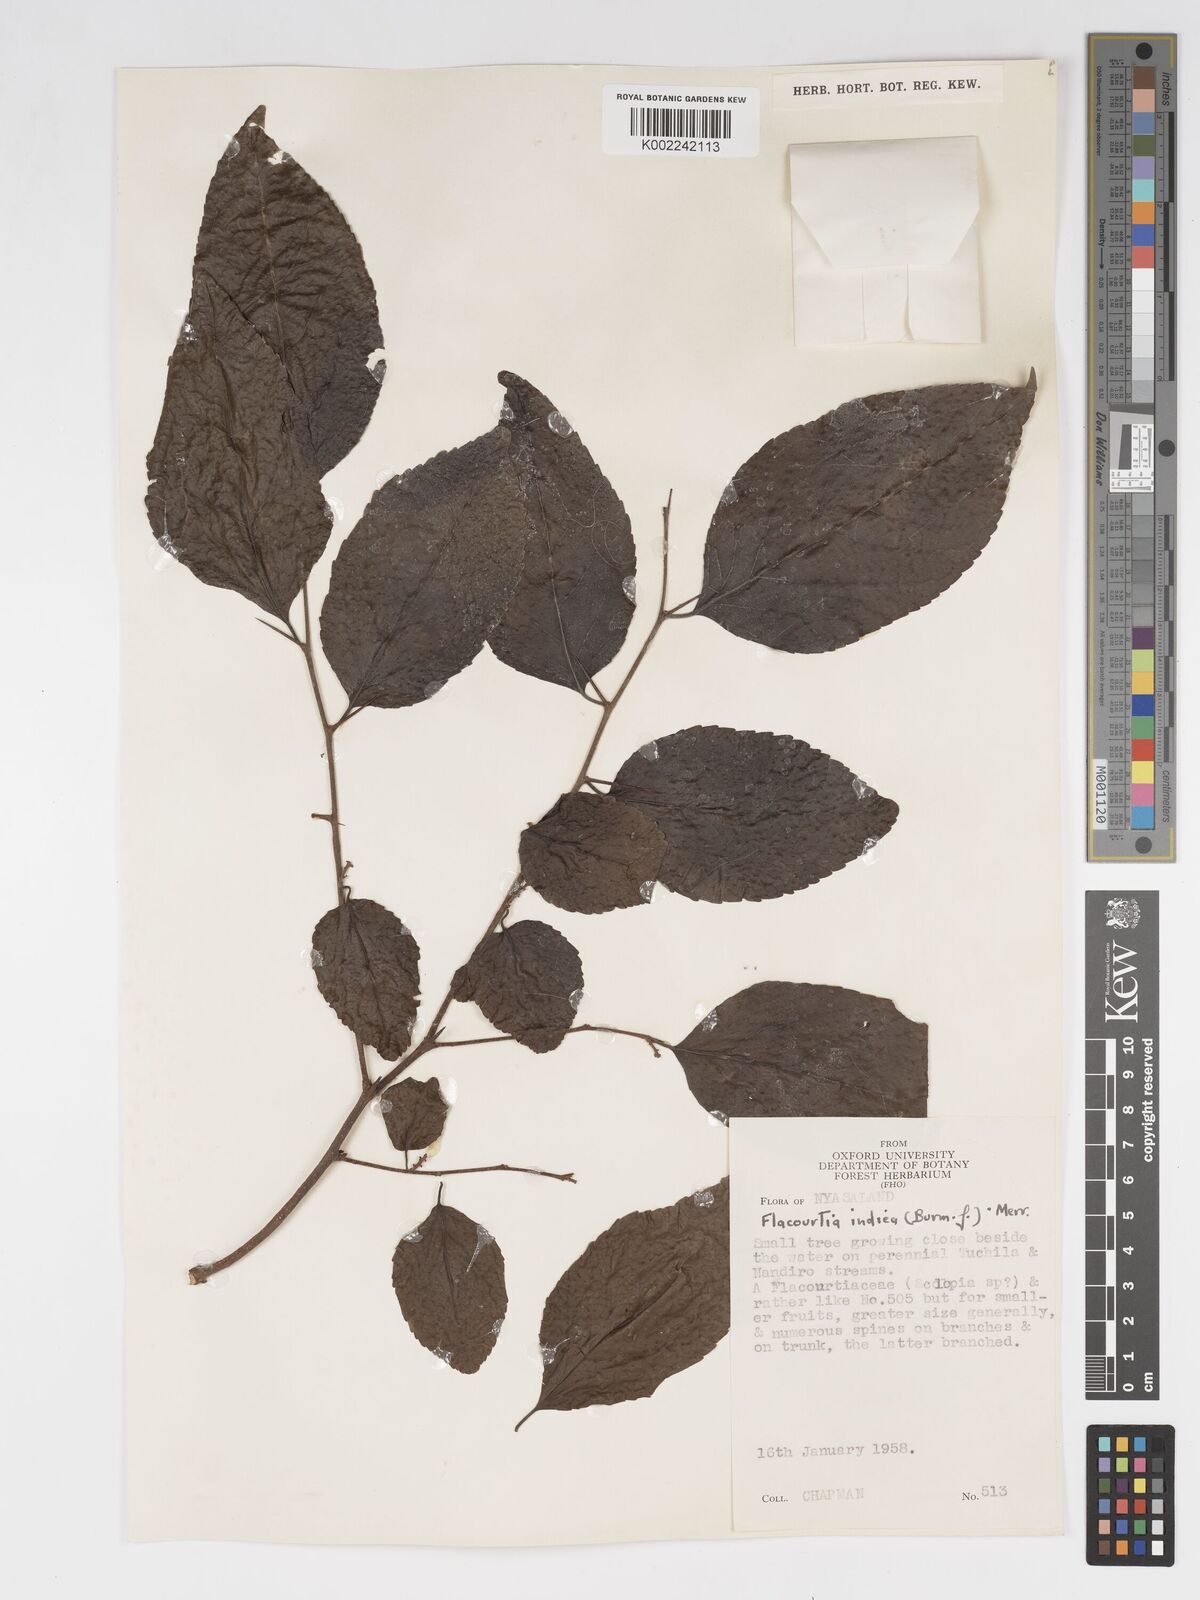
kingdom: Plantae
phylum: Tracheophyta
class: Magnoliopsida
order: Malpighiales
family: Salicaceae
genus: Flacourtia
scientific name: Flacourtia indica
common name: Governor's plum
